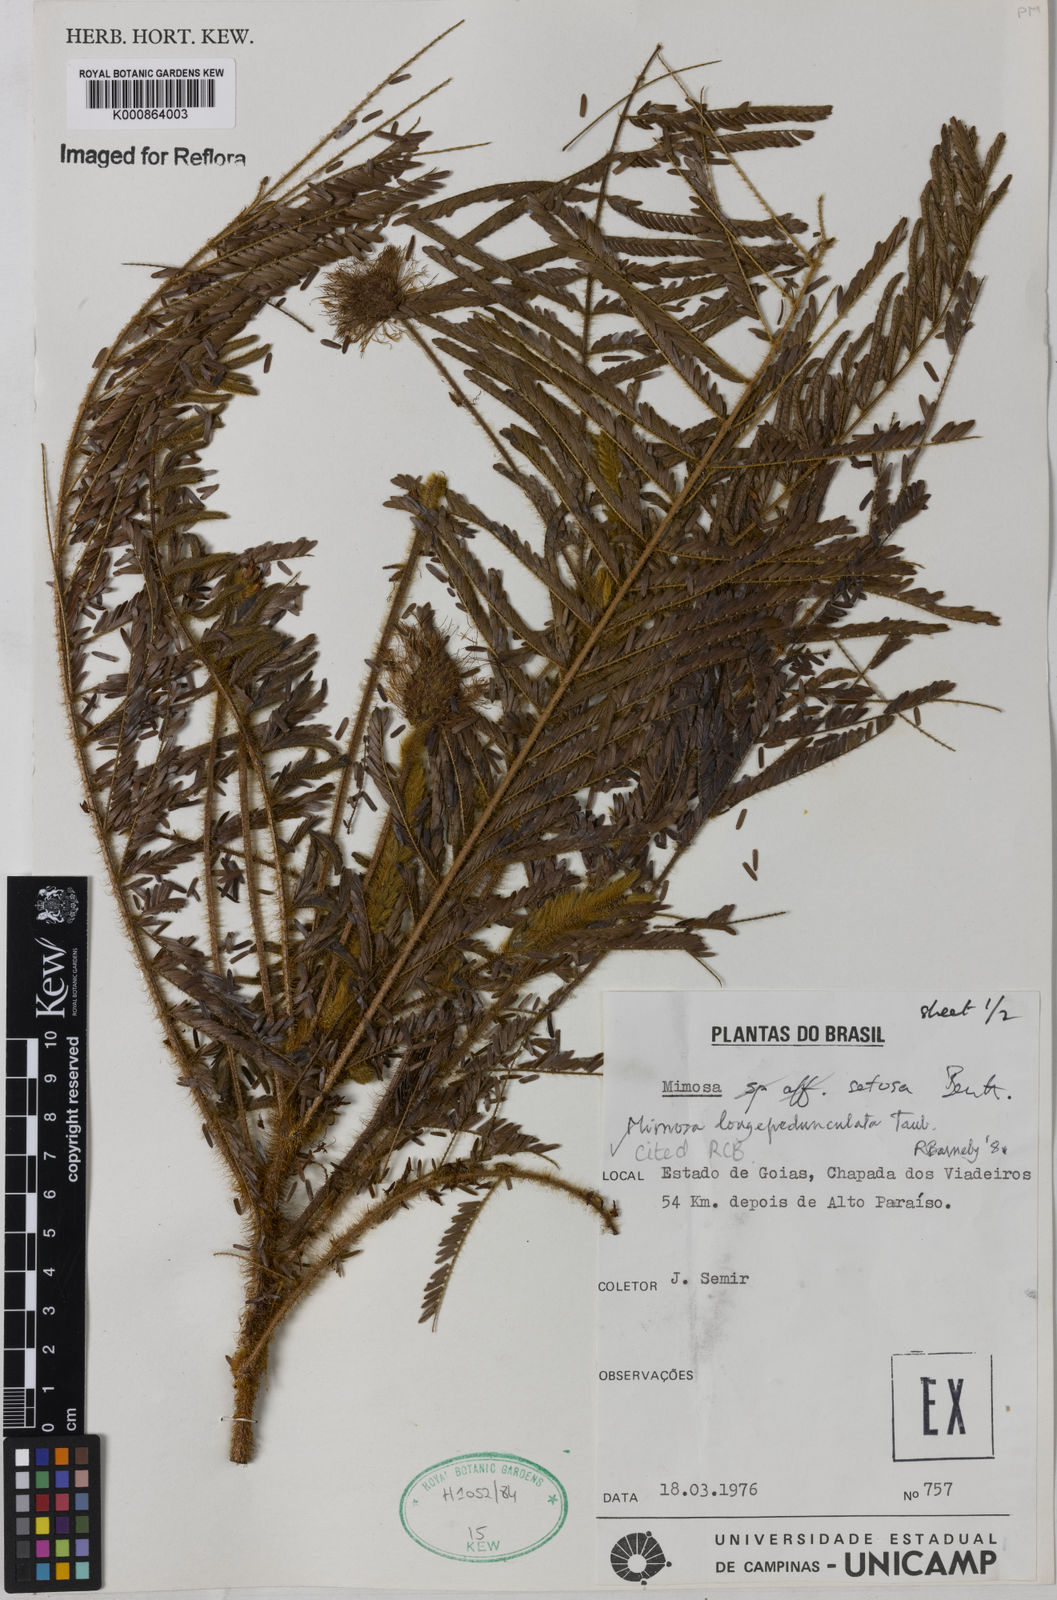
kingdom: Plantae
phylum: Tracheophyta
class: Magnoliopsida
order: Fabales
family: Fabaceae
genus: Mimosa
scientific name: Mimosa tocantina
